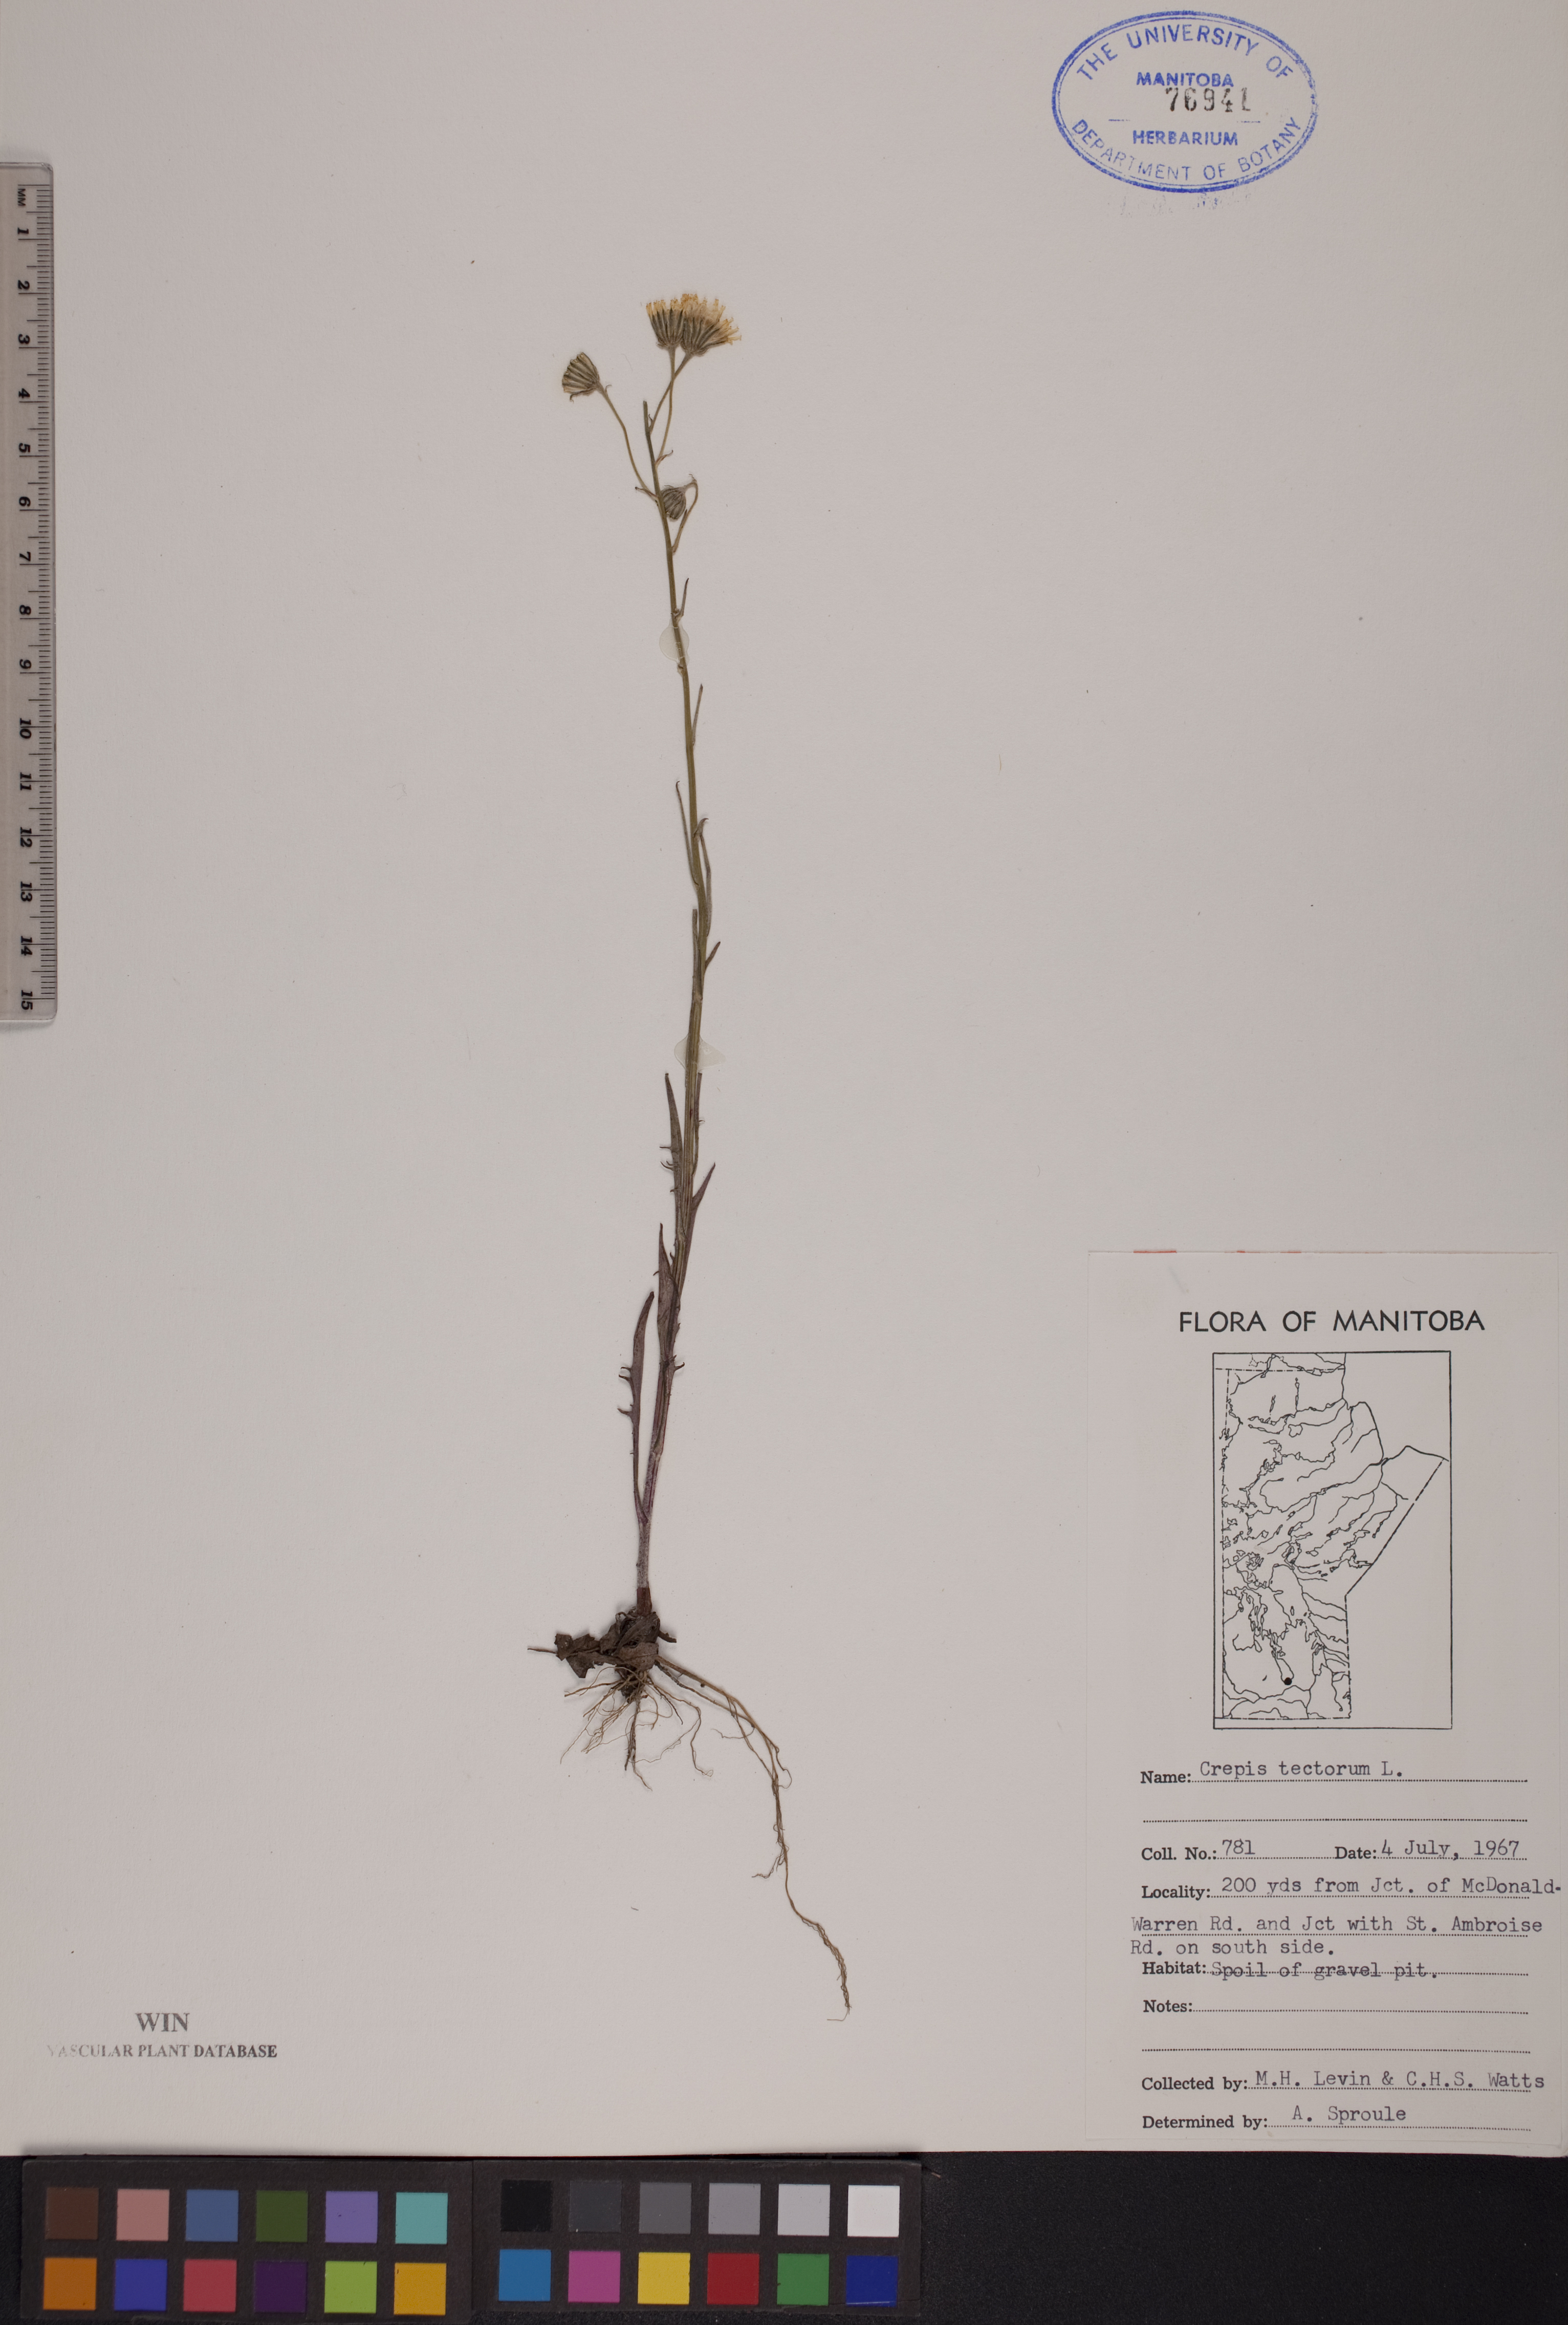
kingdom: Plantae
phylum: Tracheophyta
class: Magnoliopsida
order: Asterales
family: Asteraceae
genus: Crepis
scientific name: Crepis tectorum
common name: Narrow-leaved hawk's-beard
